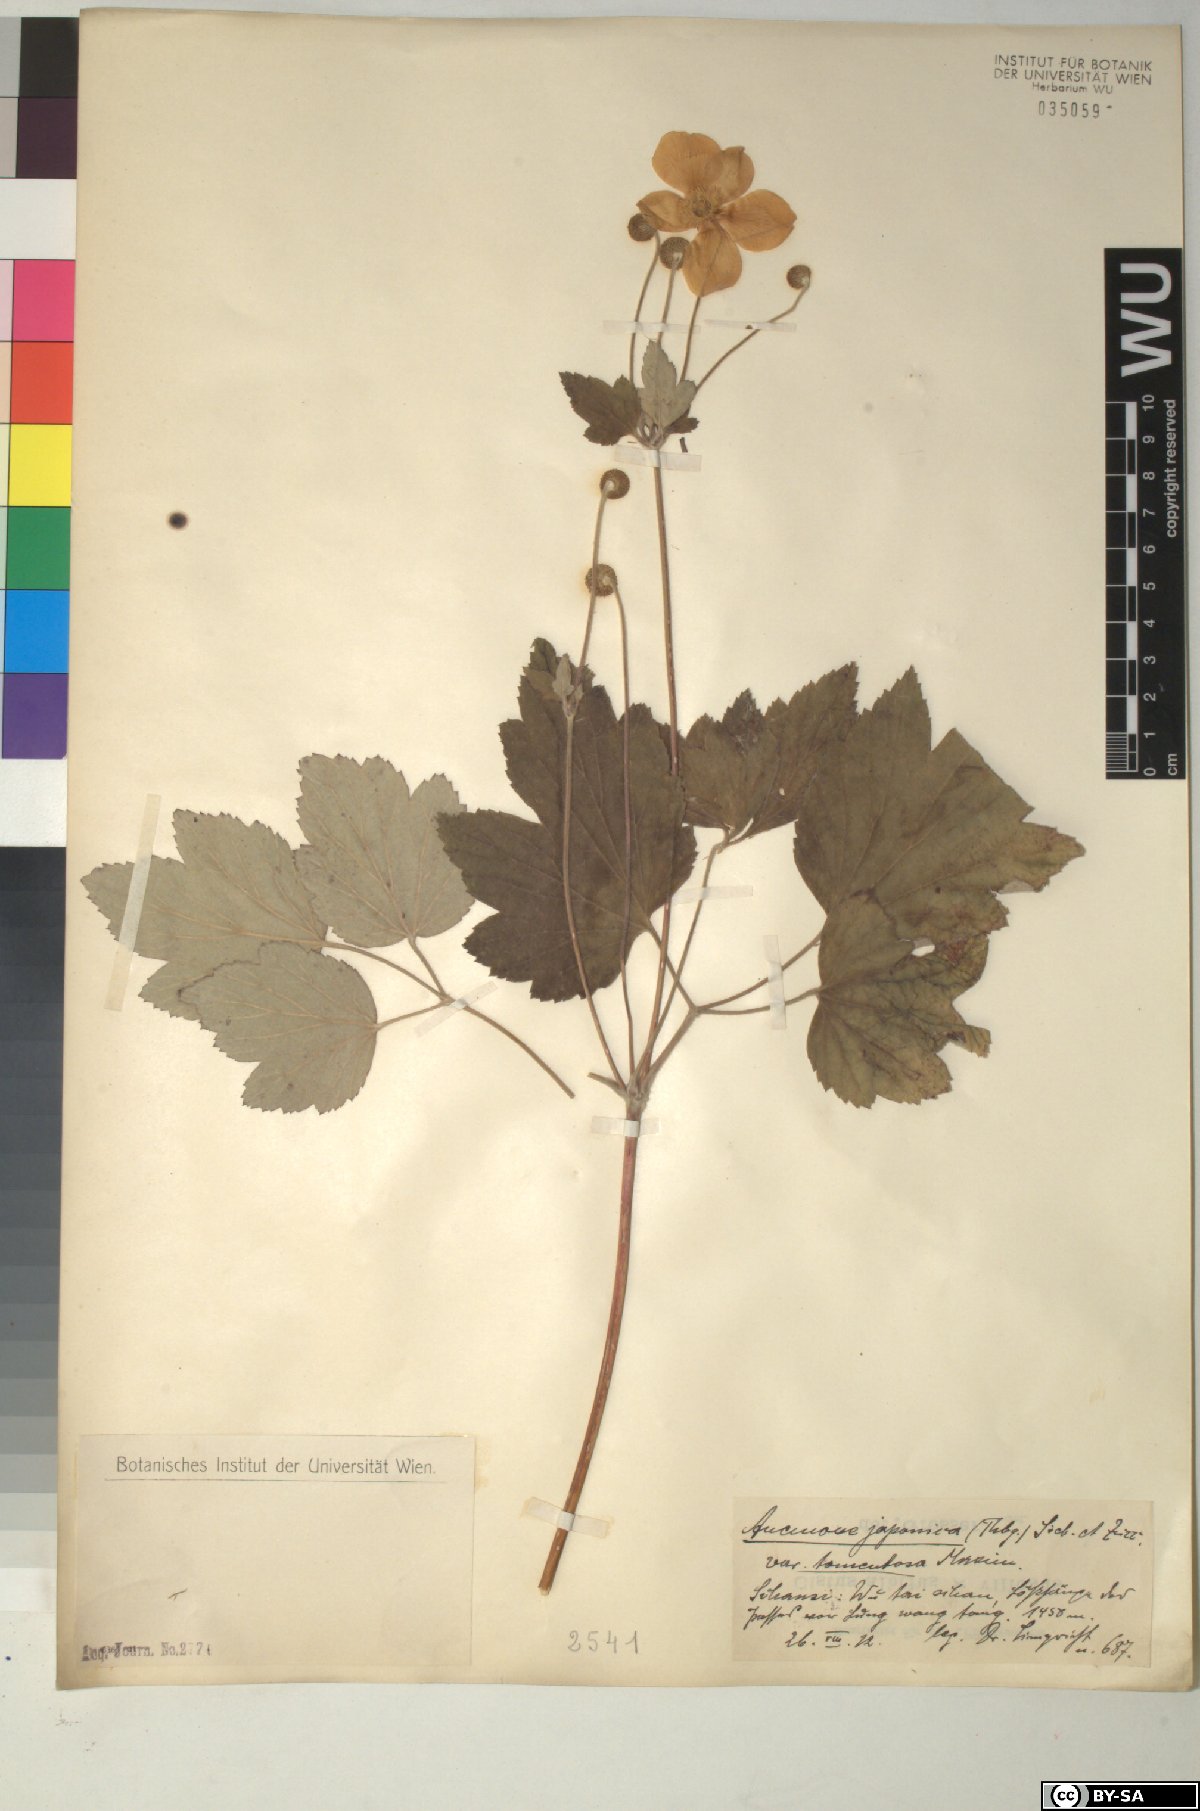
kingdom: Plantae
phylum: Tracheophyta
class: Magnoliopsida
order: Ranunculales
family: Ranunculaceae
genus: Eriocapitella
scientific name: Eriocapitella japonica
